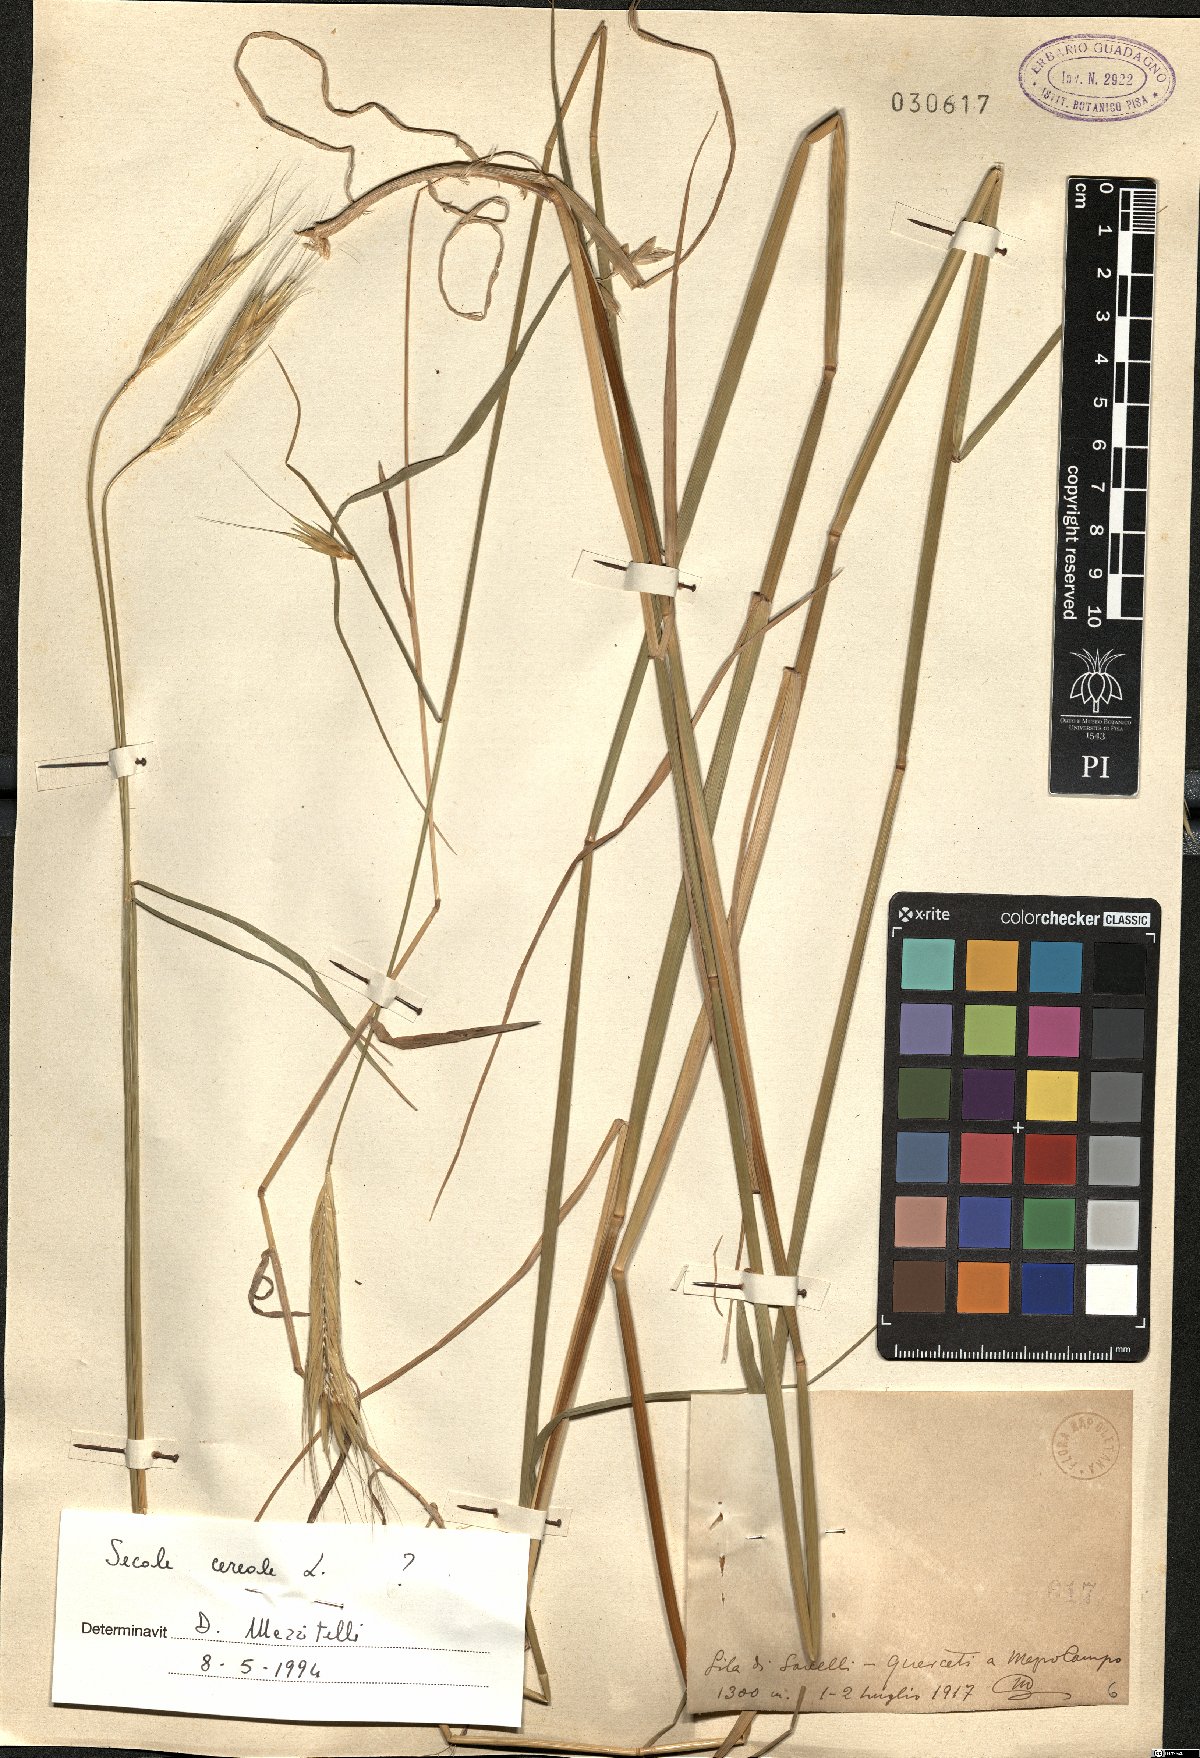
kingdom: Plantae
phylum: Tracheophyta
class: Liliopsida
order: Poales
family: Poaceae
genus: Secale
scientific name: Secale cereale
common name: Rye
